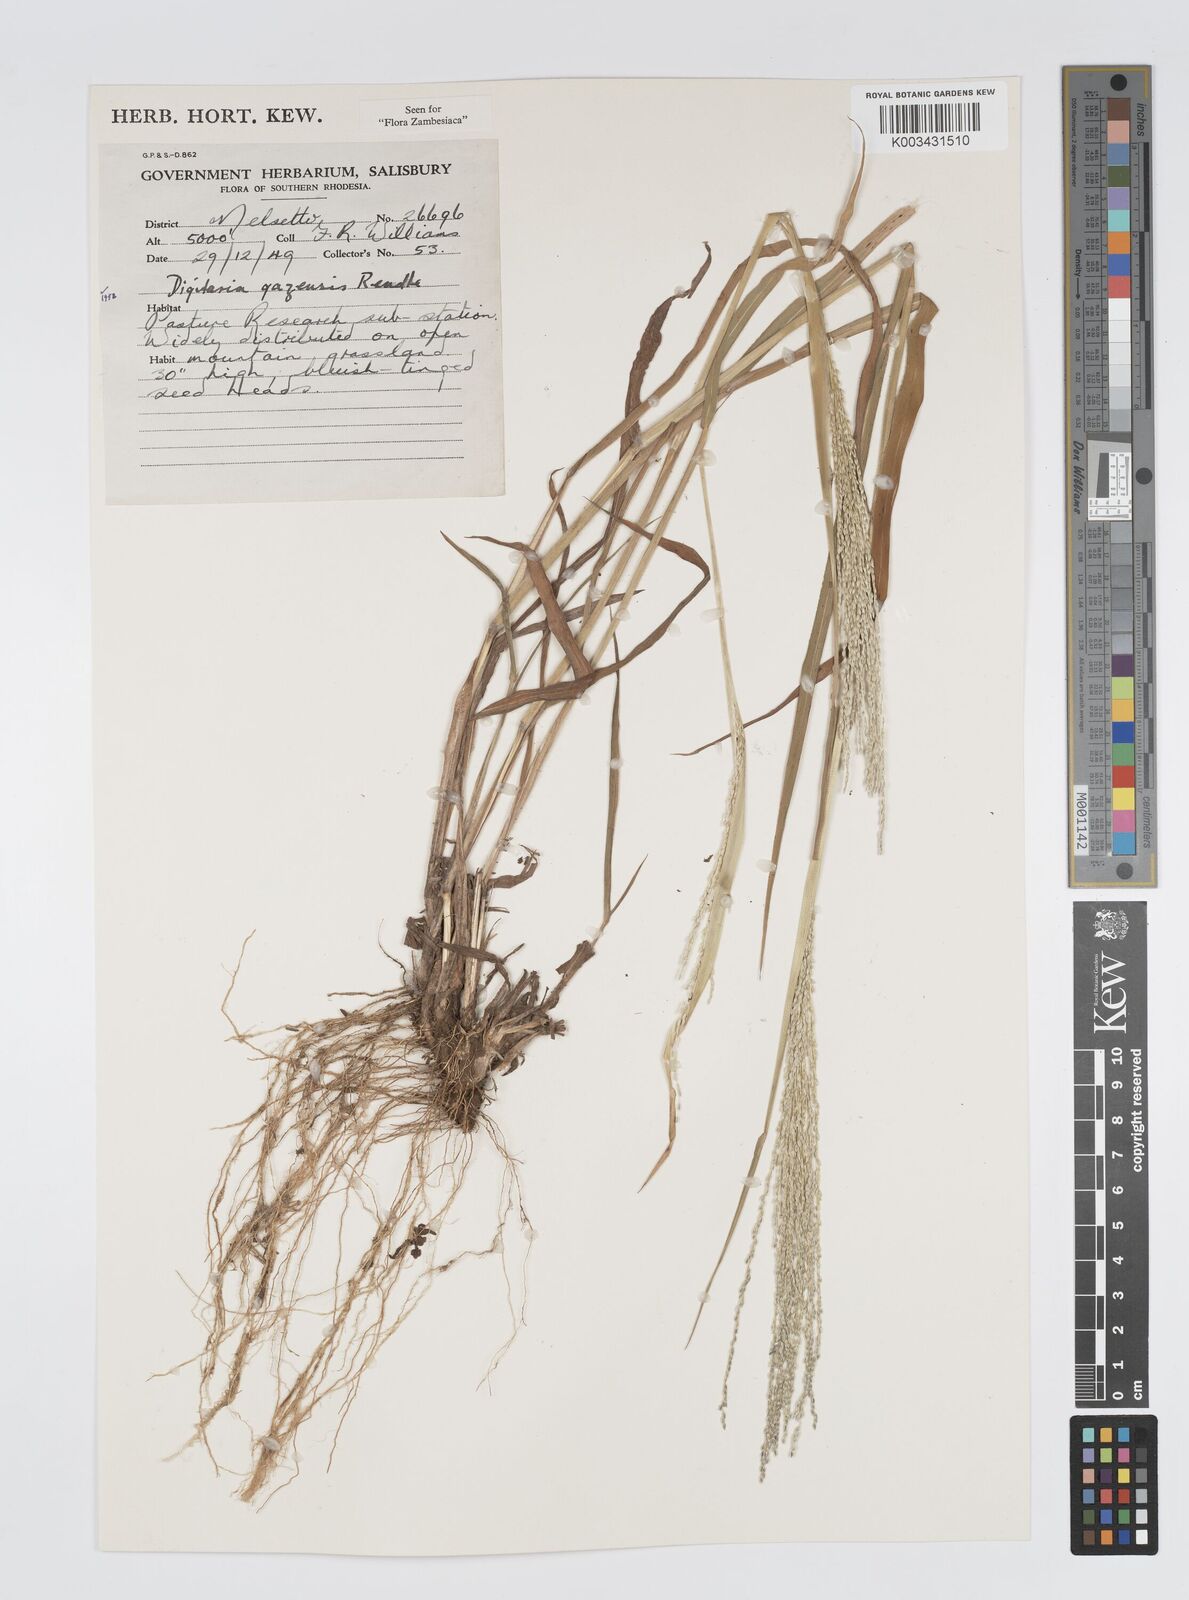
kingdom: Plantae
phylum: Tracheophyta
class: Liliopsida
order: Poales
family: Poaceae
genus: Digitaria
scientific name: Digitaria gazensis
